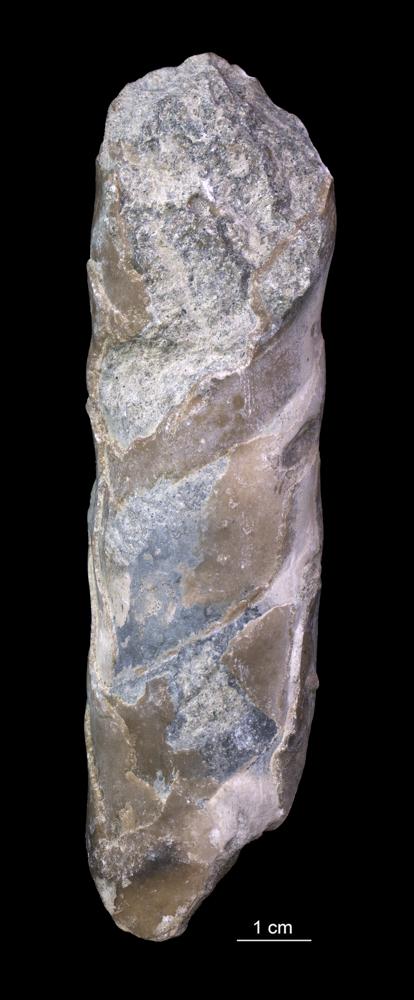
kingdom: Animalia
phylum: Mollusca
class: Cephalopoda
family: Estonioceratidae
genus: Estonioceras
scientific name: Estonioceras
